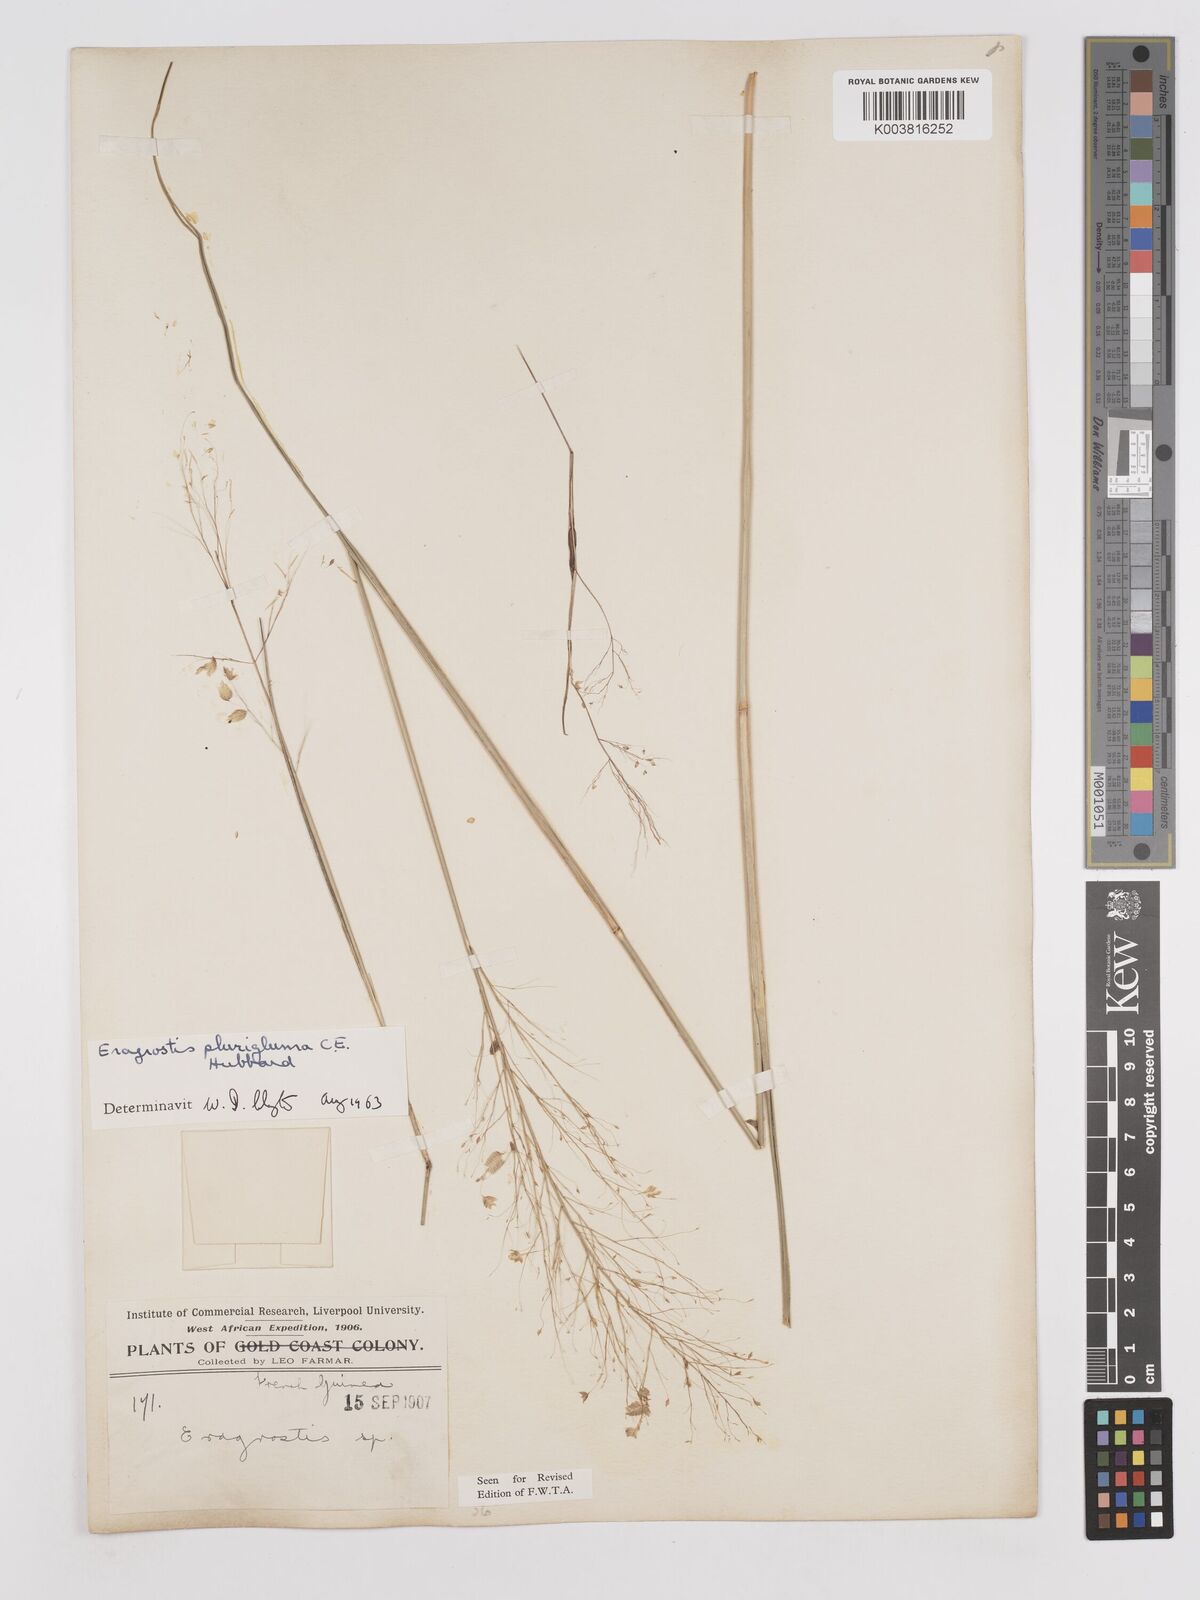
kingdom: Plantae
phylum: Tracheophyta
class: Liliopsida
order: Poales
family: Poaceae
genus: Eragrostis
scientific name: Eragrostis plurigluma
